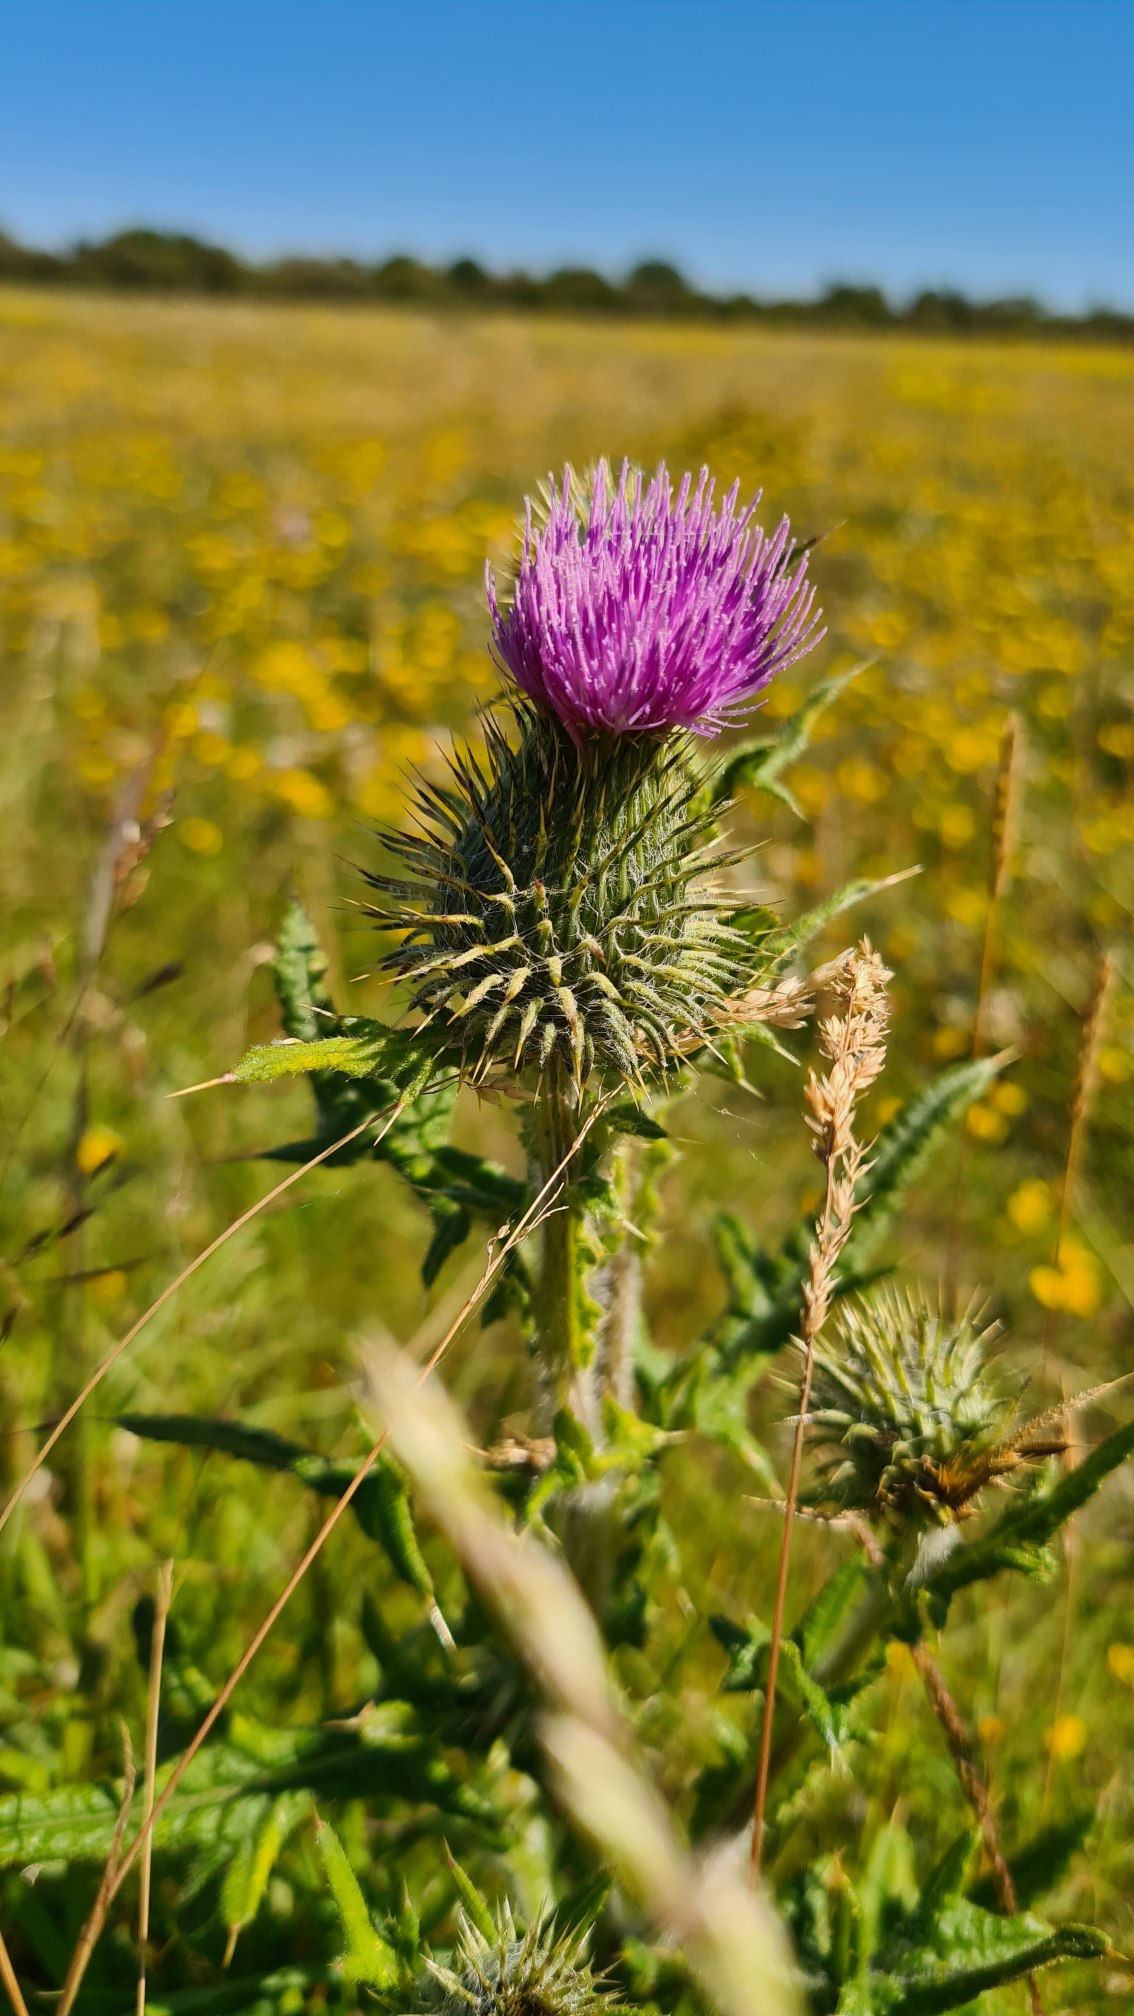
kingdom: Plantae
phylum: Tracheophyta
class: Magnoliopsida
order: Asterales
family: Asteraceae
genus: Cirsium
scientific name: Cirsium vulgare
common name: Horse-tidsel
